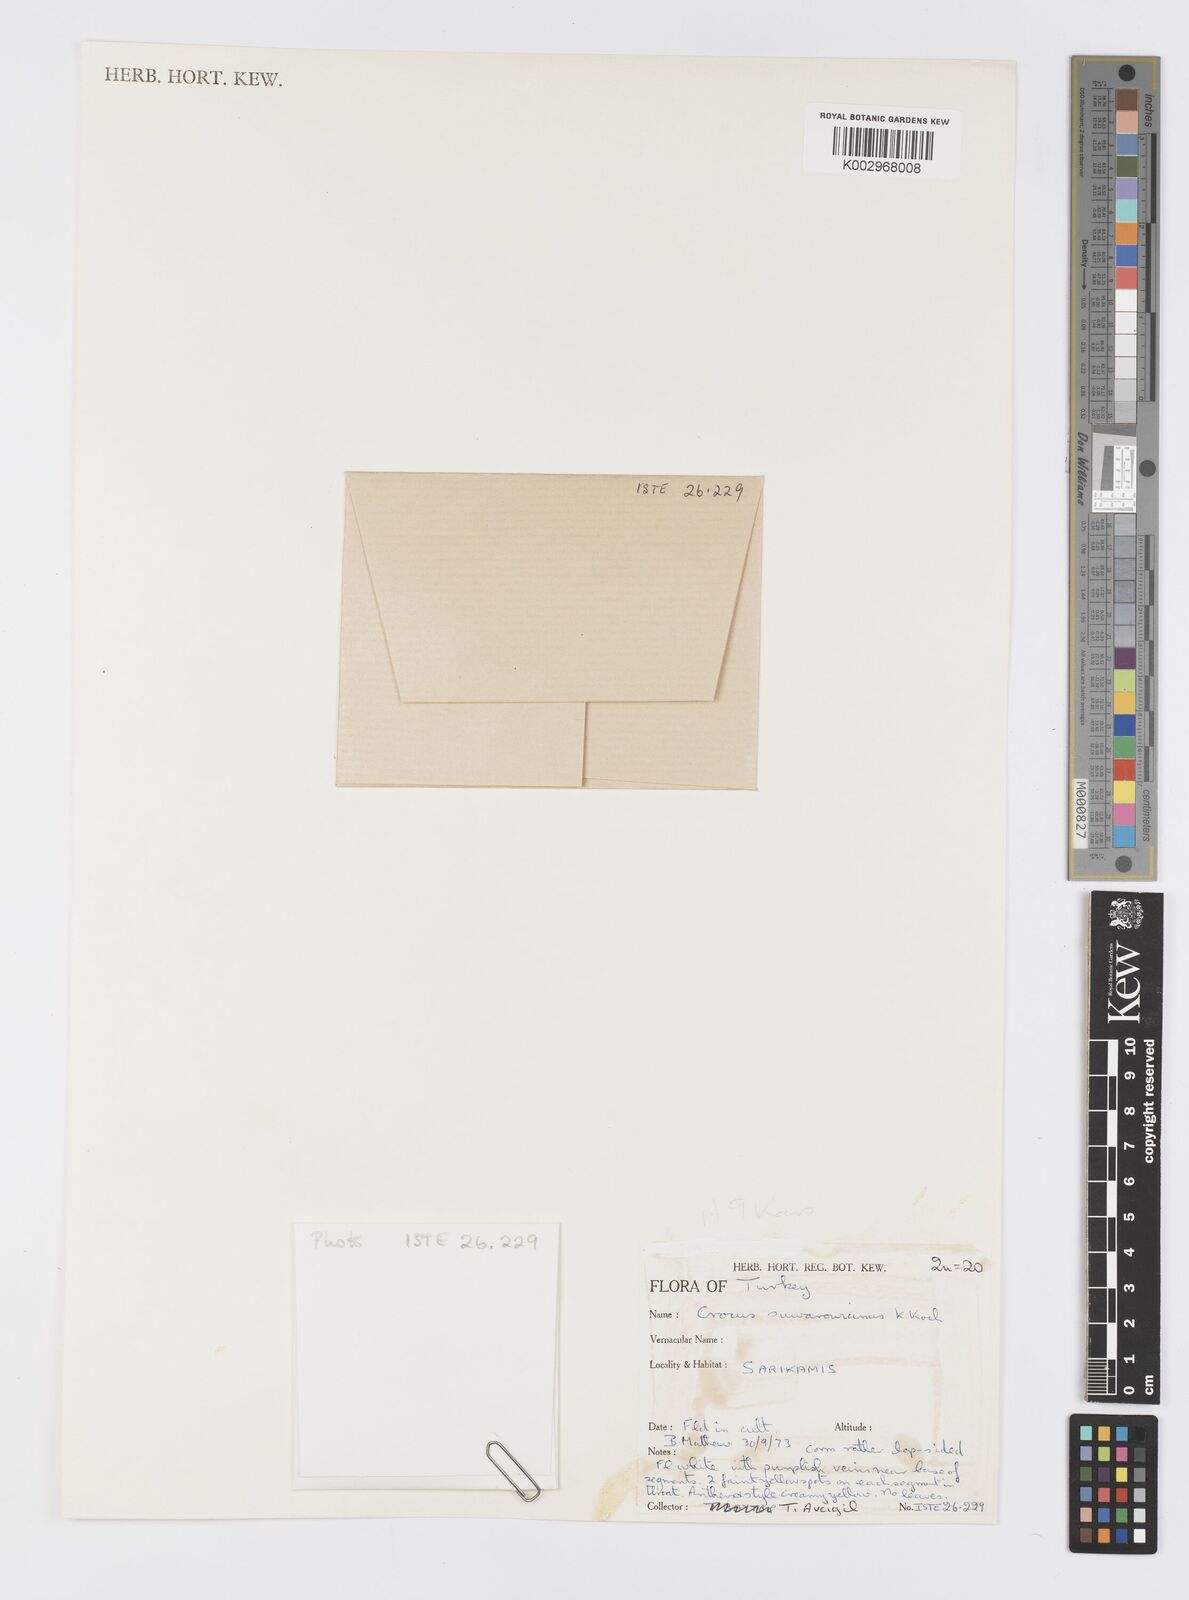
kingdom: Plantae
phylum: Tracheophyta
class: Liliopsida
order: Asparagales
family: Iridaceae
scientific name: Iridaceae
